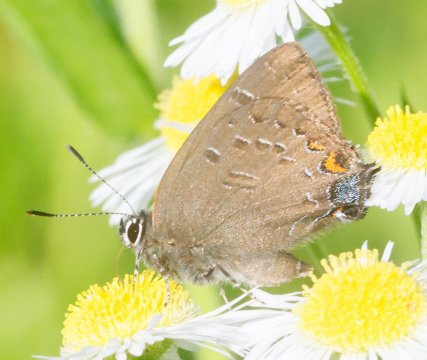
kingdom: Animalia
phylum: Arthropoda
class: Insecta
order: Lepidoptera
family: Lycaenidae
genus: Satyrium
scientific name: Satyrium calanus
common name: Banded Hairstreak
